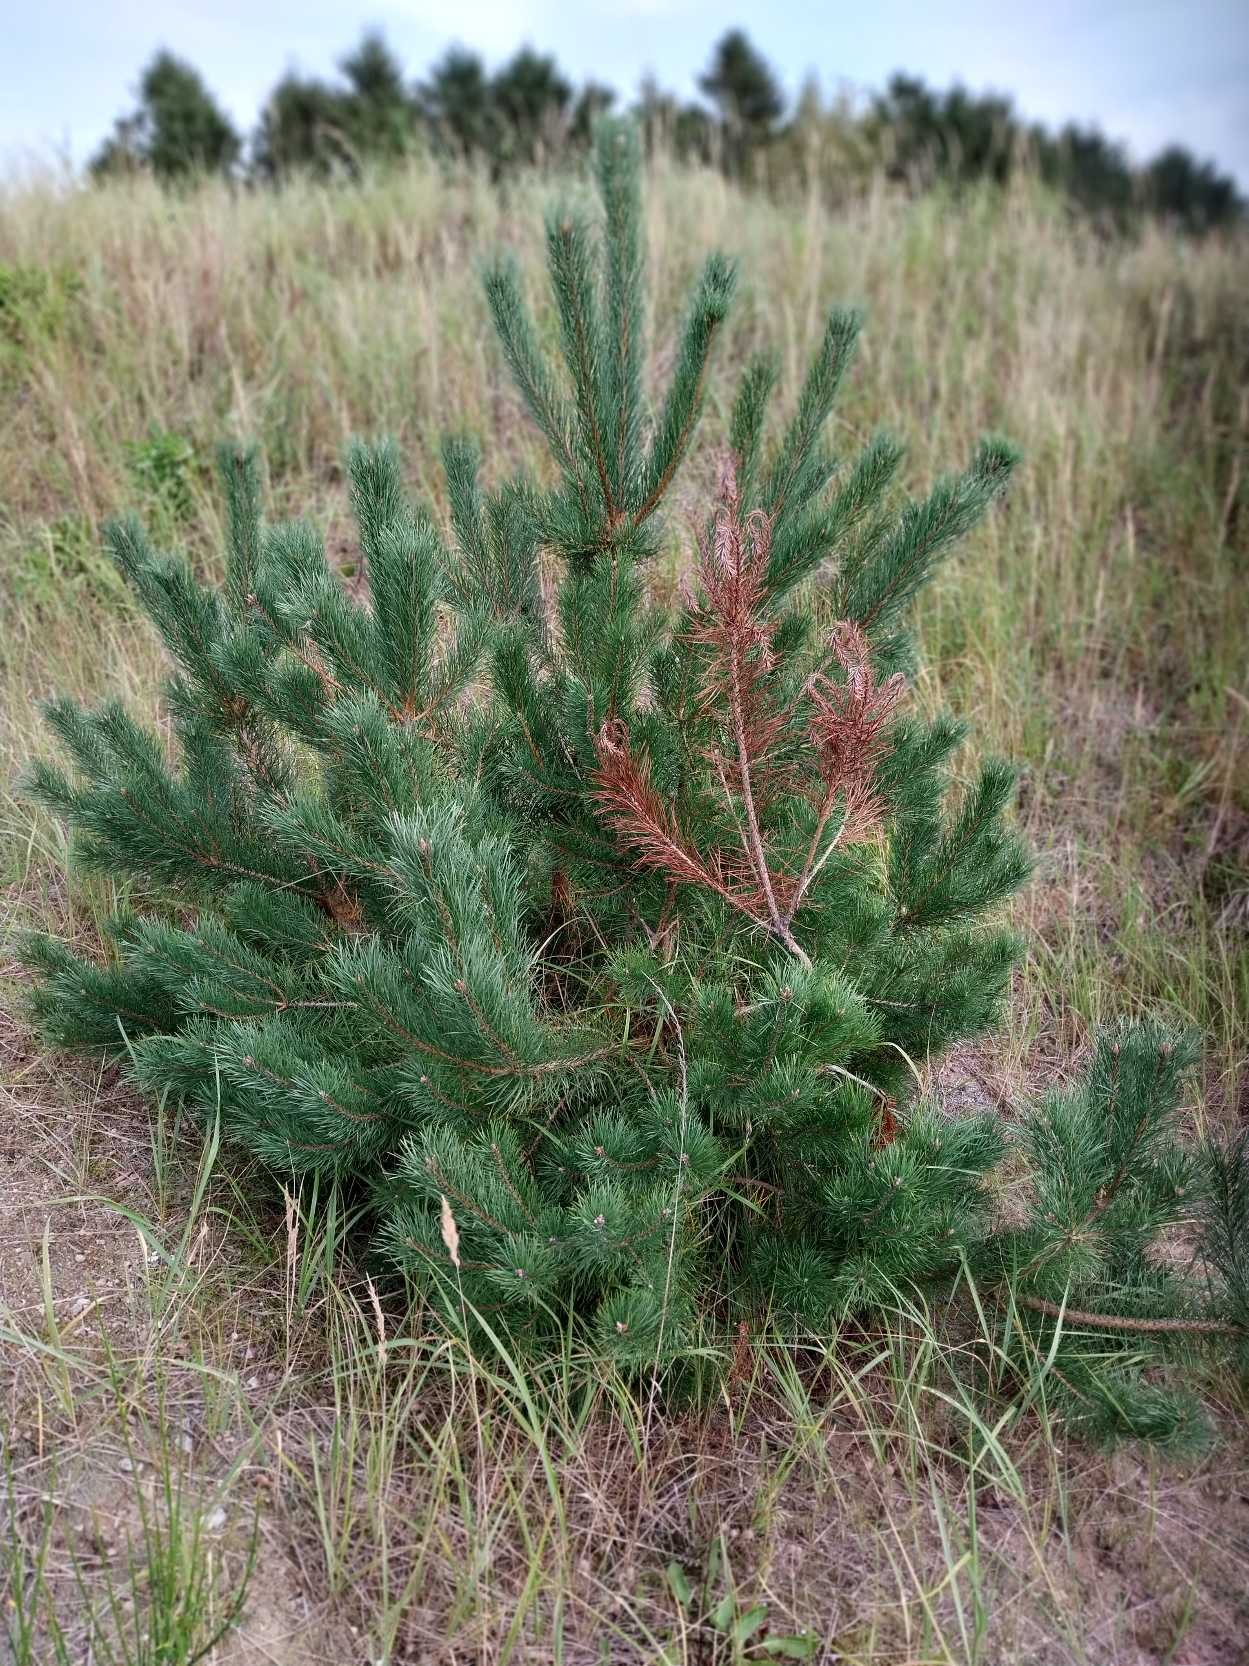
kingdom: Plantae
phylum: Tracheophyta
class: Pinopsida
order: Pinales
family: Pinaceae
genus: Pinus
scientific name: Pinus sylvestris
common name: Skov-fyr
